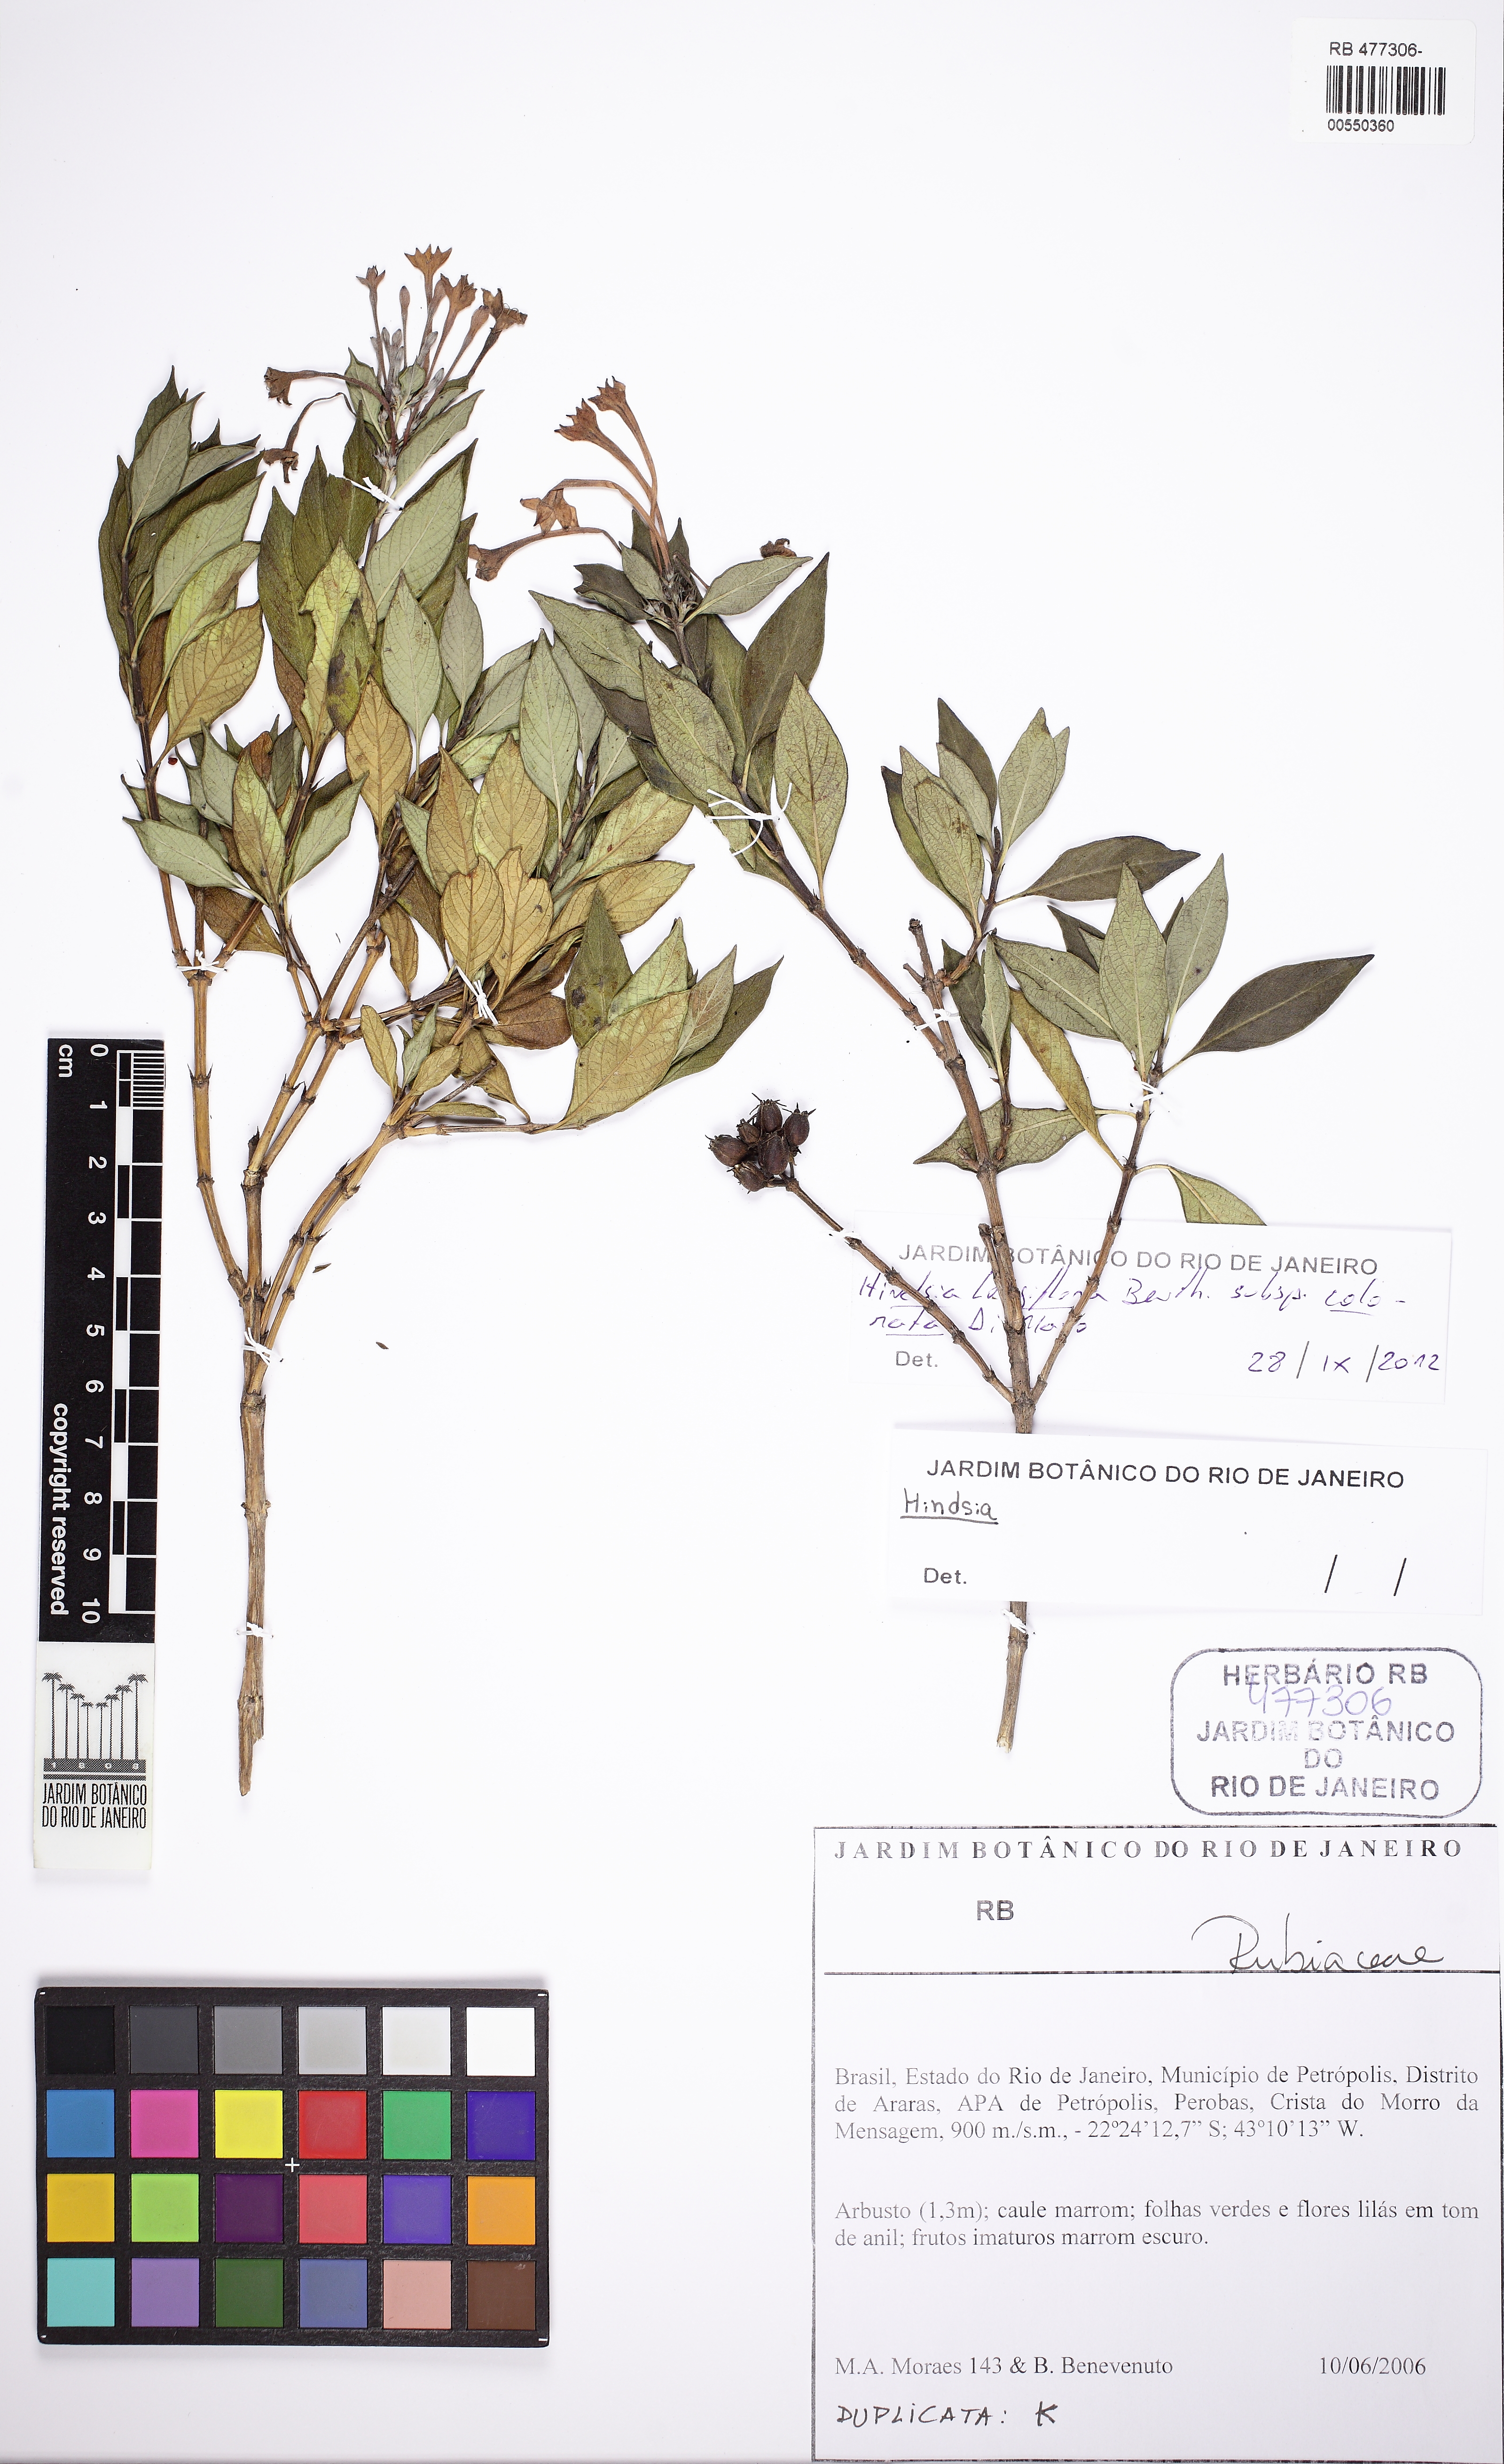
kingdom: Plantae
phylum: Tracheophyta
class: Magnoliopsida
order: Gentianales
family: Rubiaceae
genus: Hindsia
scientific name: Hindsia longiflora
